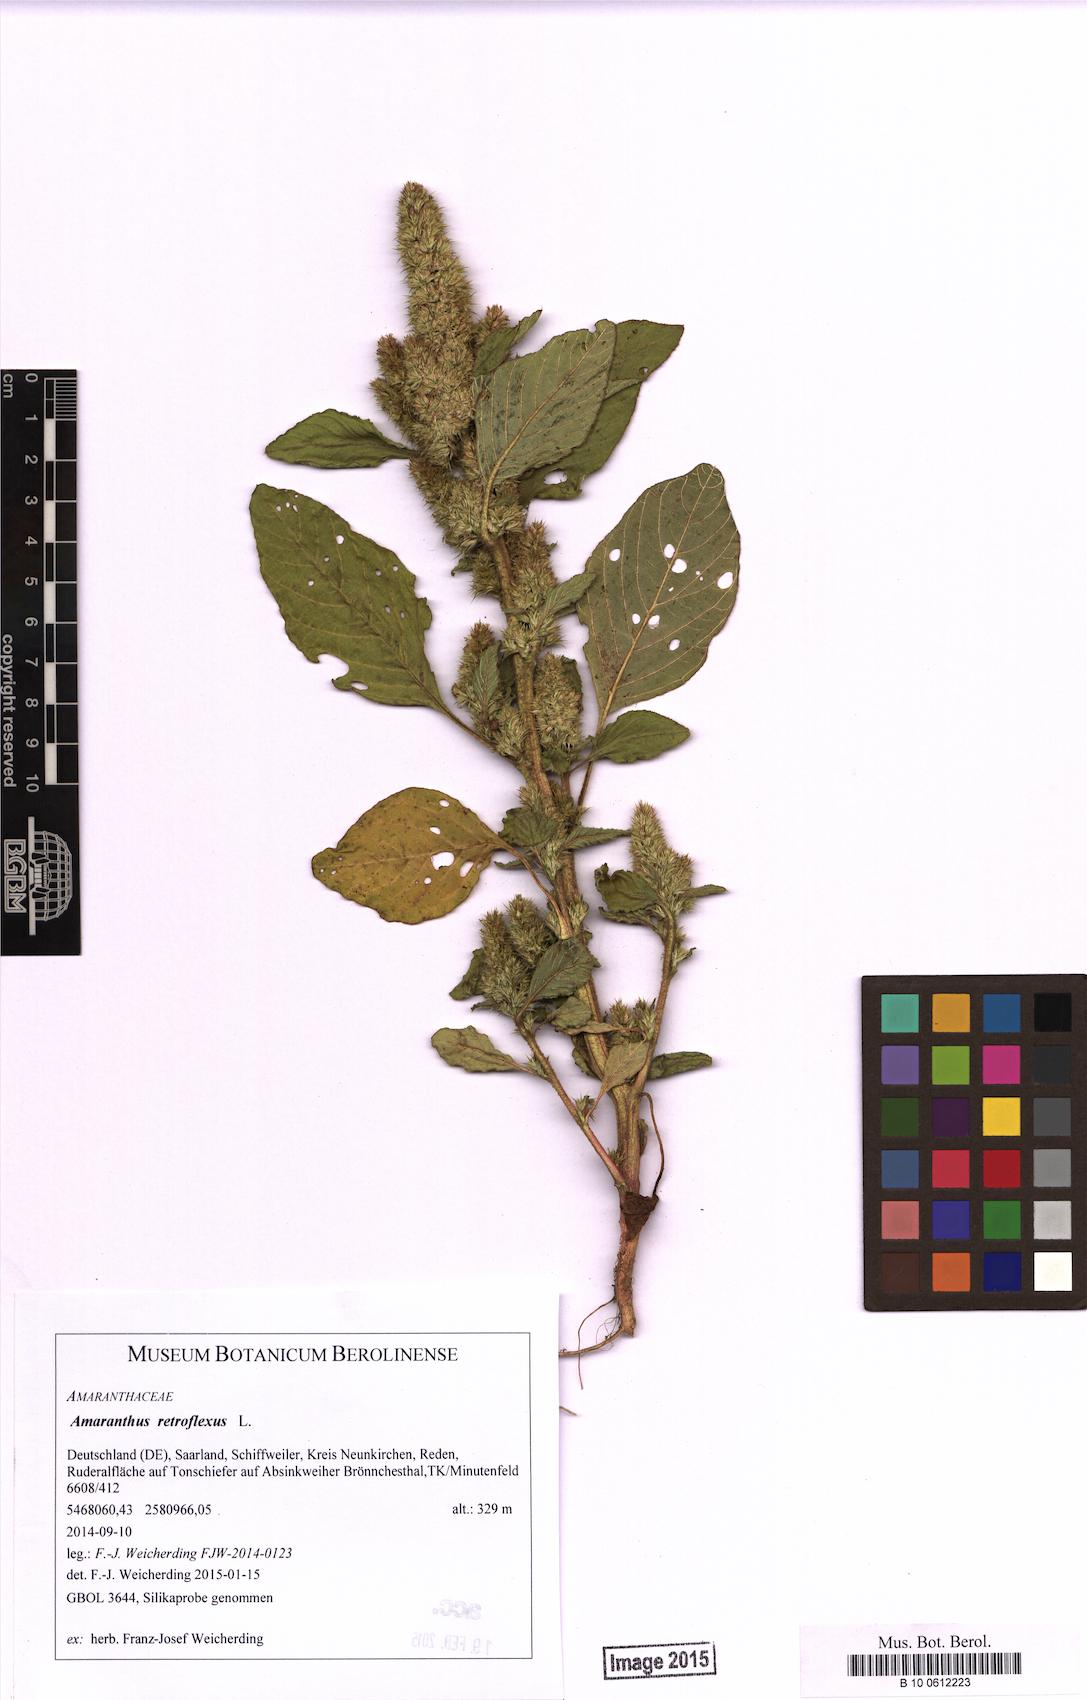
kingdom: Plantae
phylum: Tracheophyta
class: Magnoliopsida
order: Caryophyllales
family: Amaranthaceae
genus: Amaranthus
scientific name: Amaranthus retroflexus
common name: Redroot amaranth
